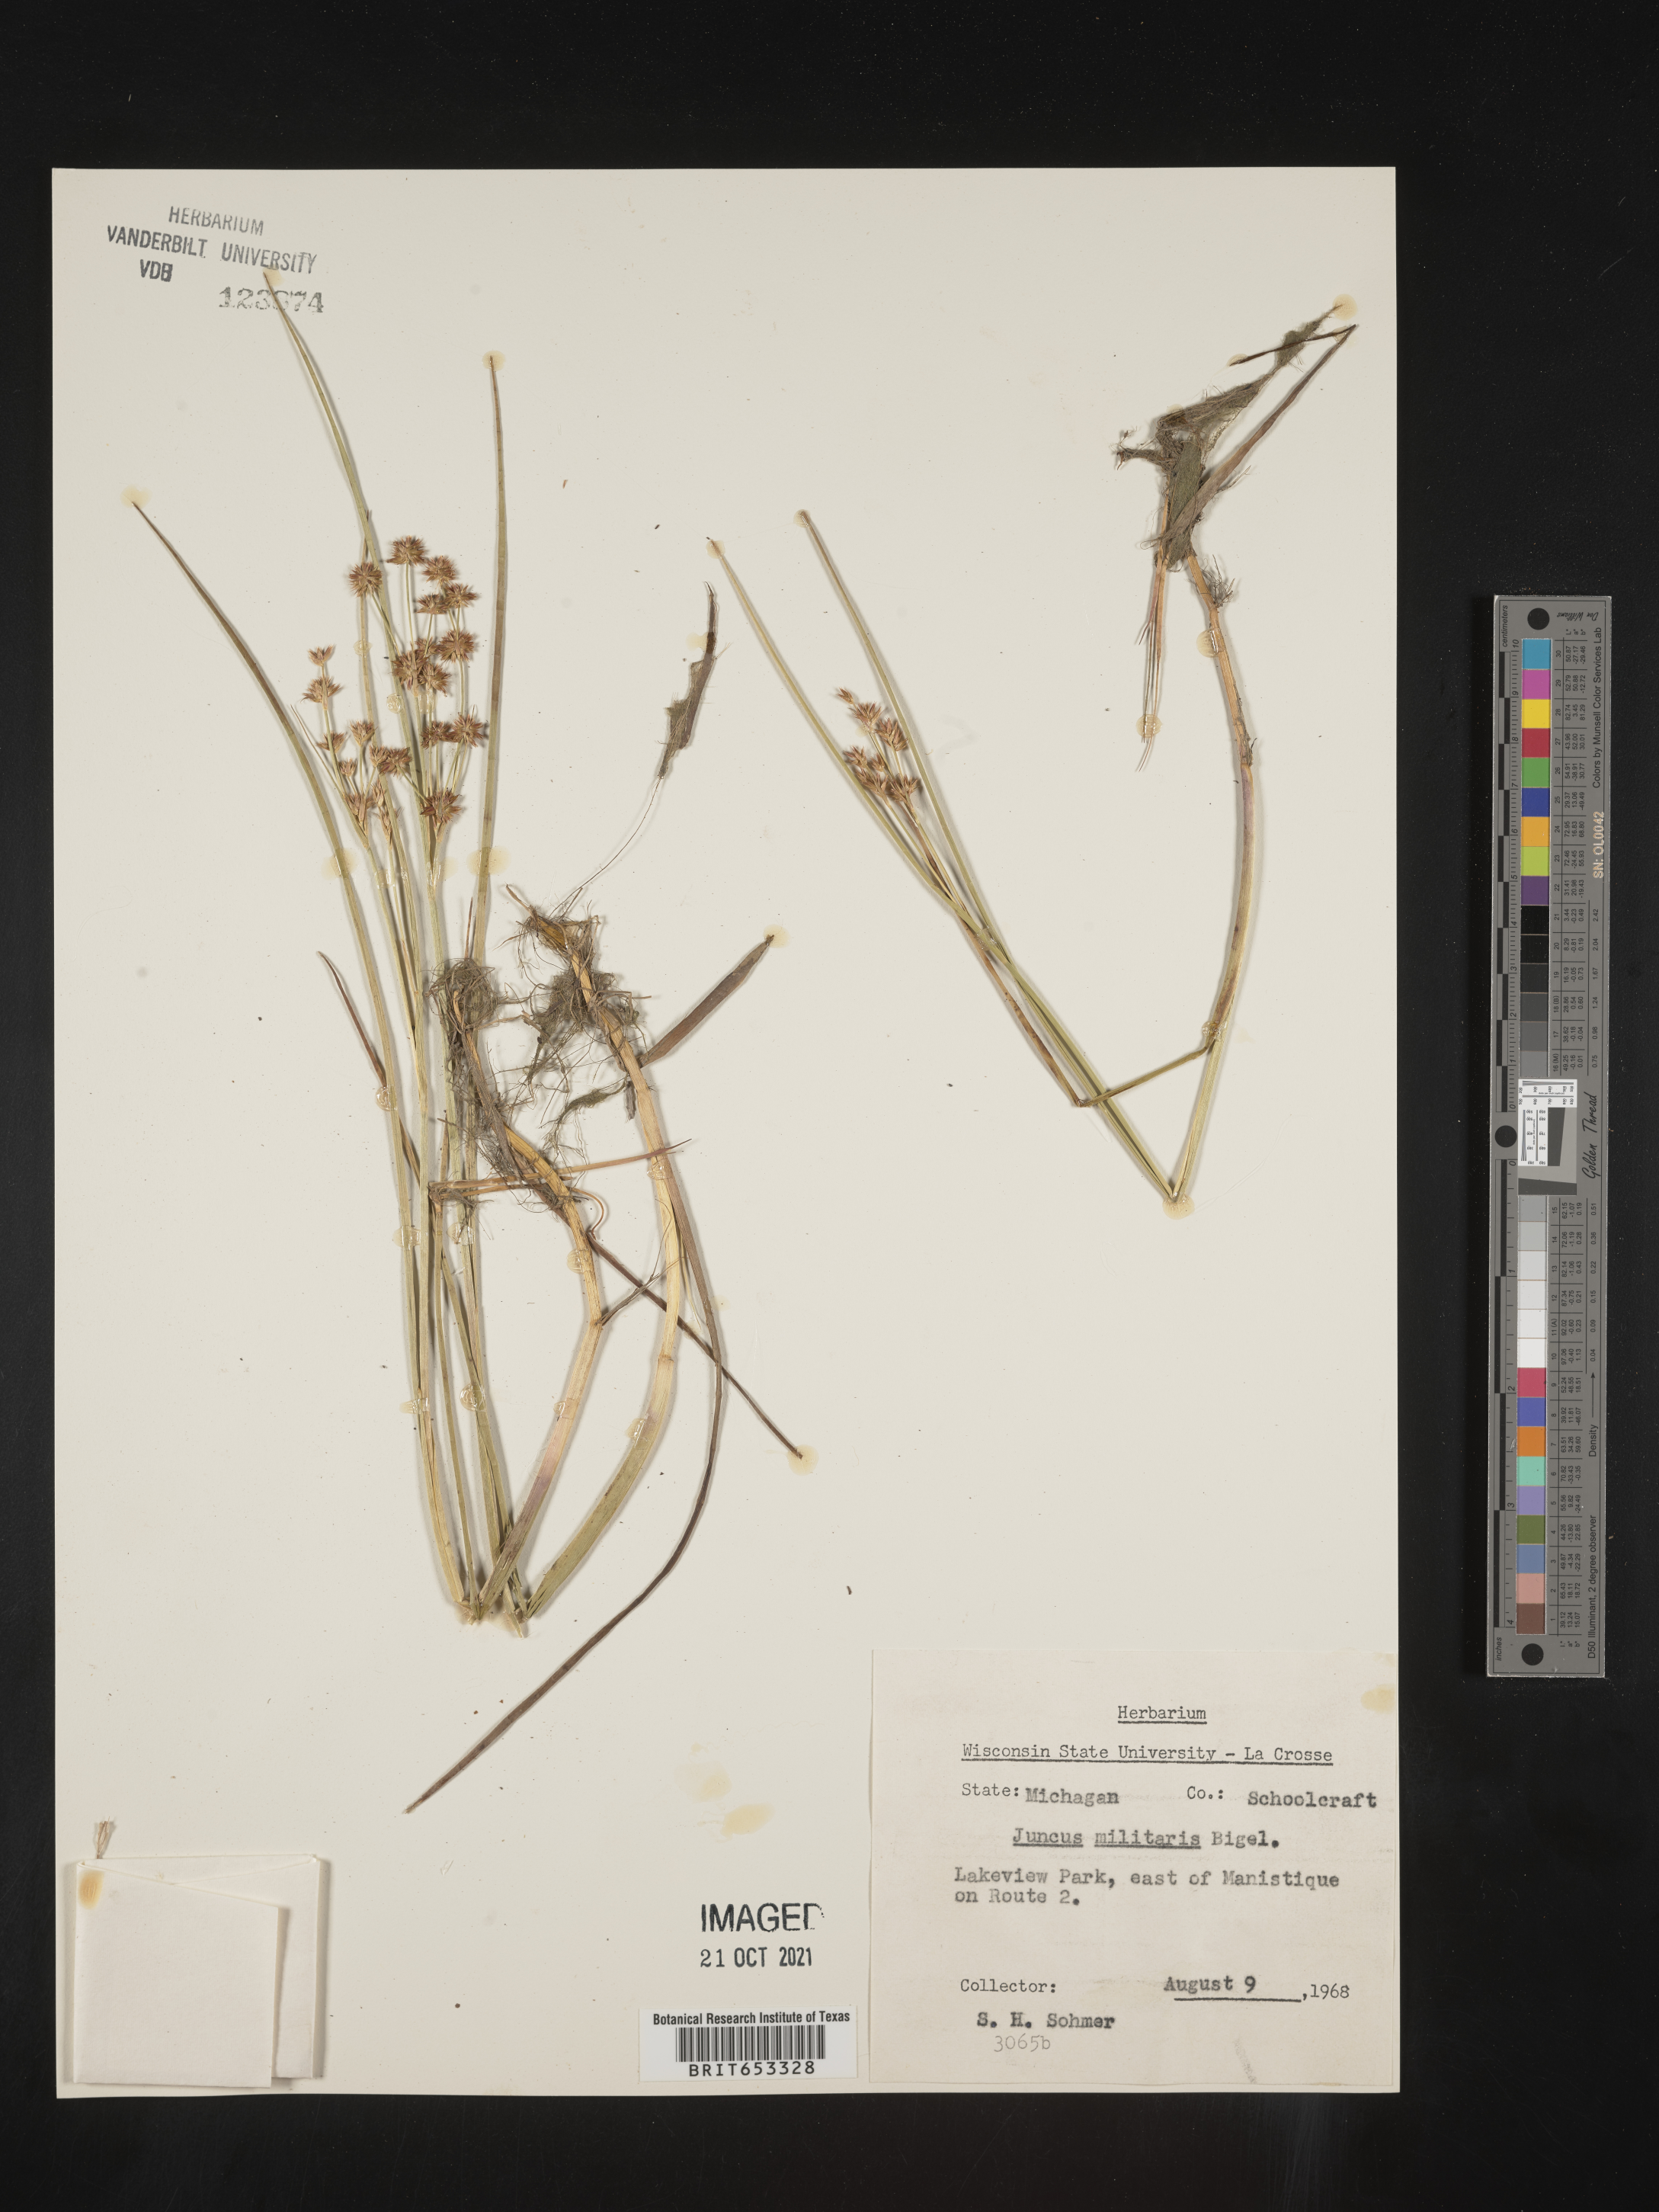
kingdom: Plantae
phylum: Tracheophyta
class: Liliopsida
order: Poales
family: Juncaceae
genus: Juncus
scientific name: Juncus militaris
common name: Bayonet rush
